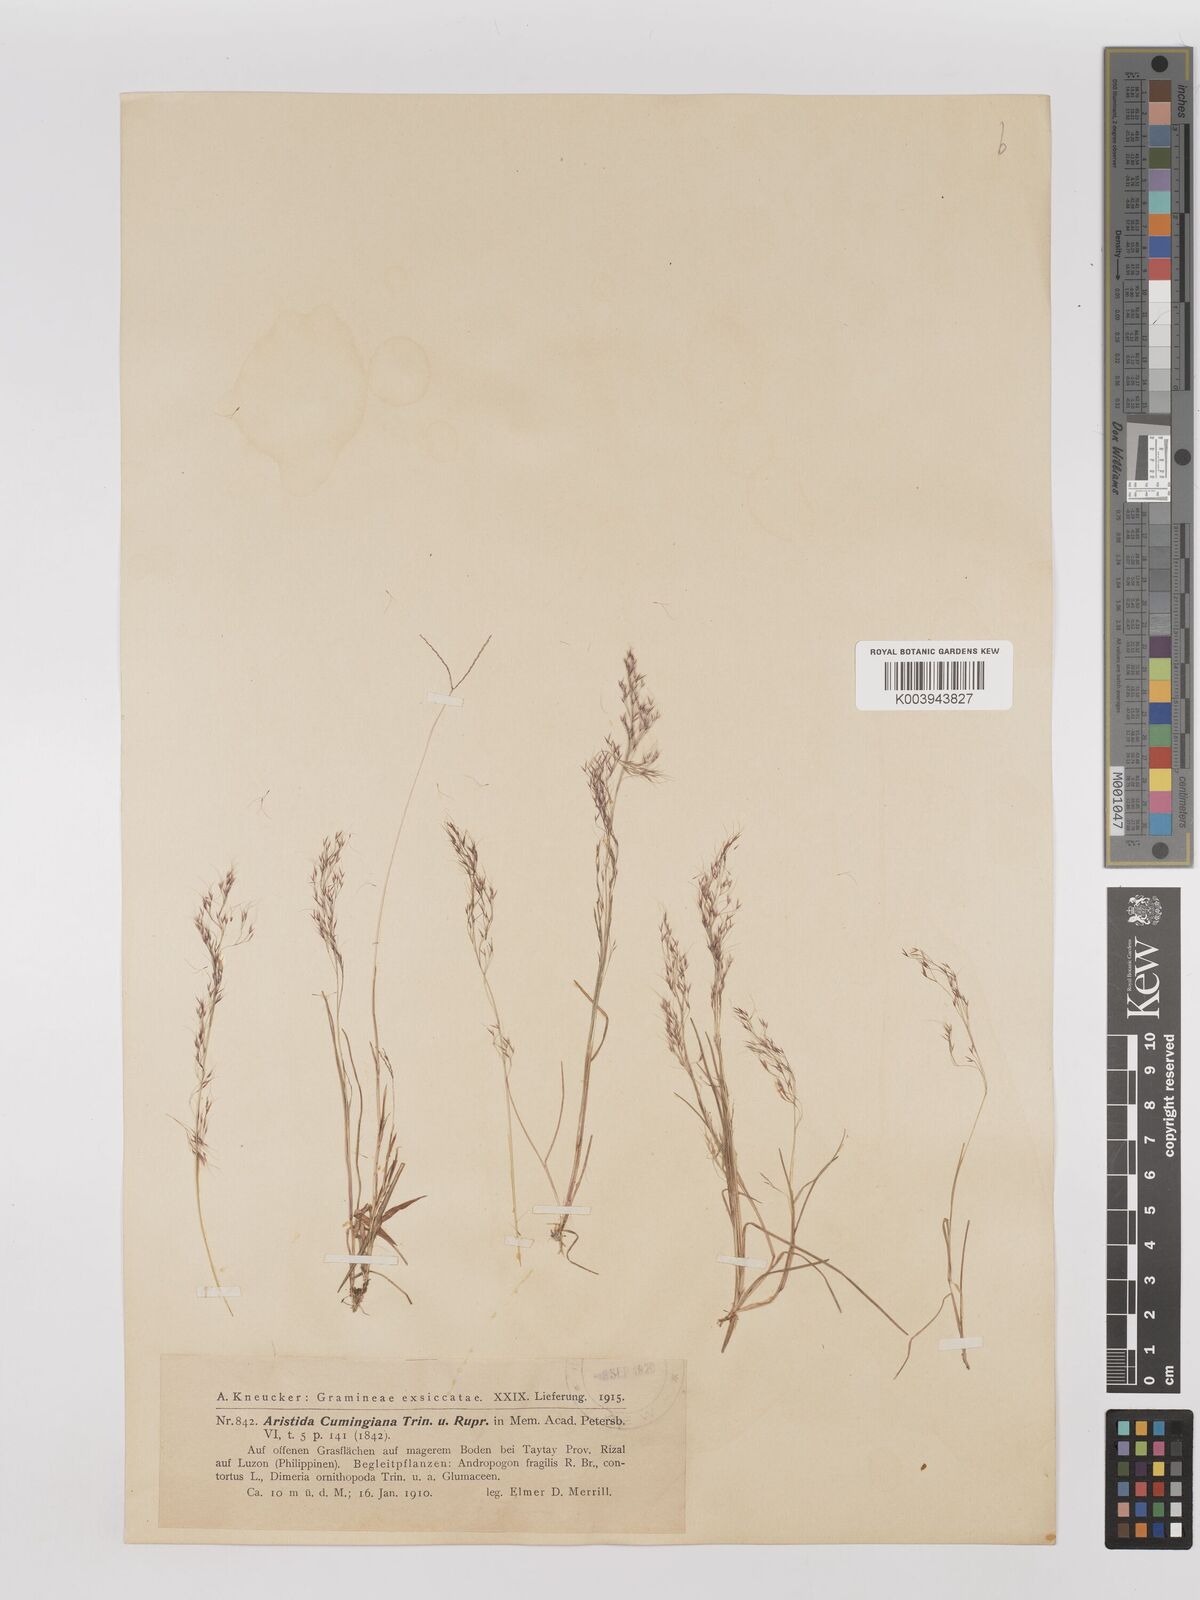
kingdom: Plantae
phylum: Tracheophyta
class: Liliopsida
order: Poales
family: Poaceae
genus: Aristida
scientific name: Aristida cumingiana
